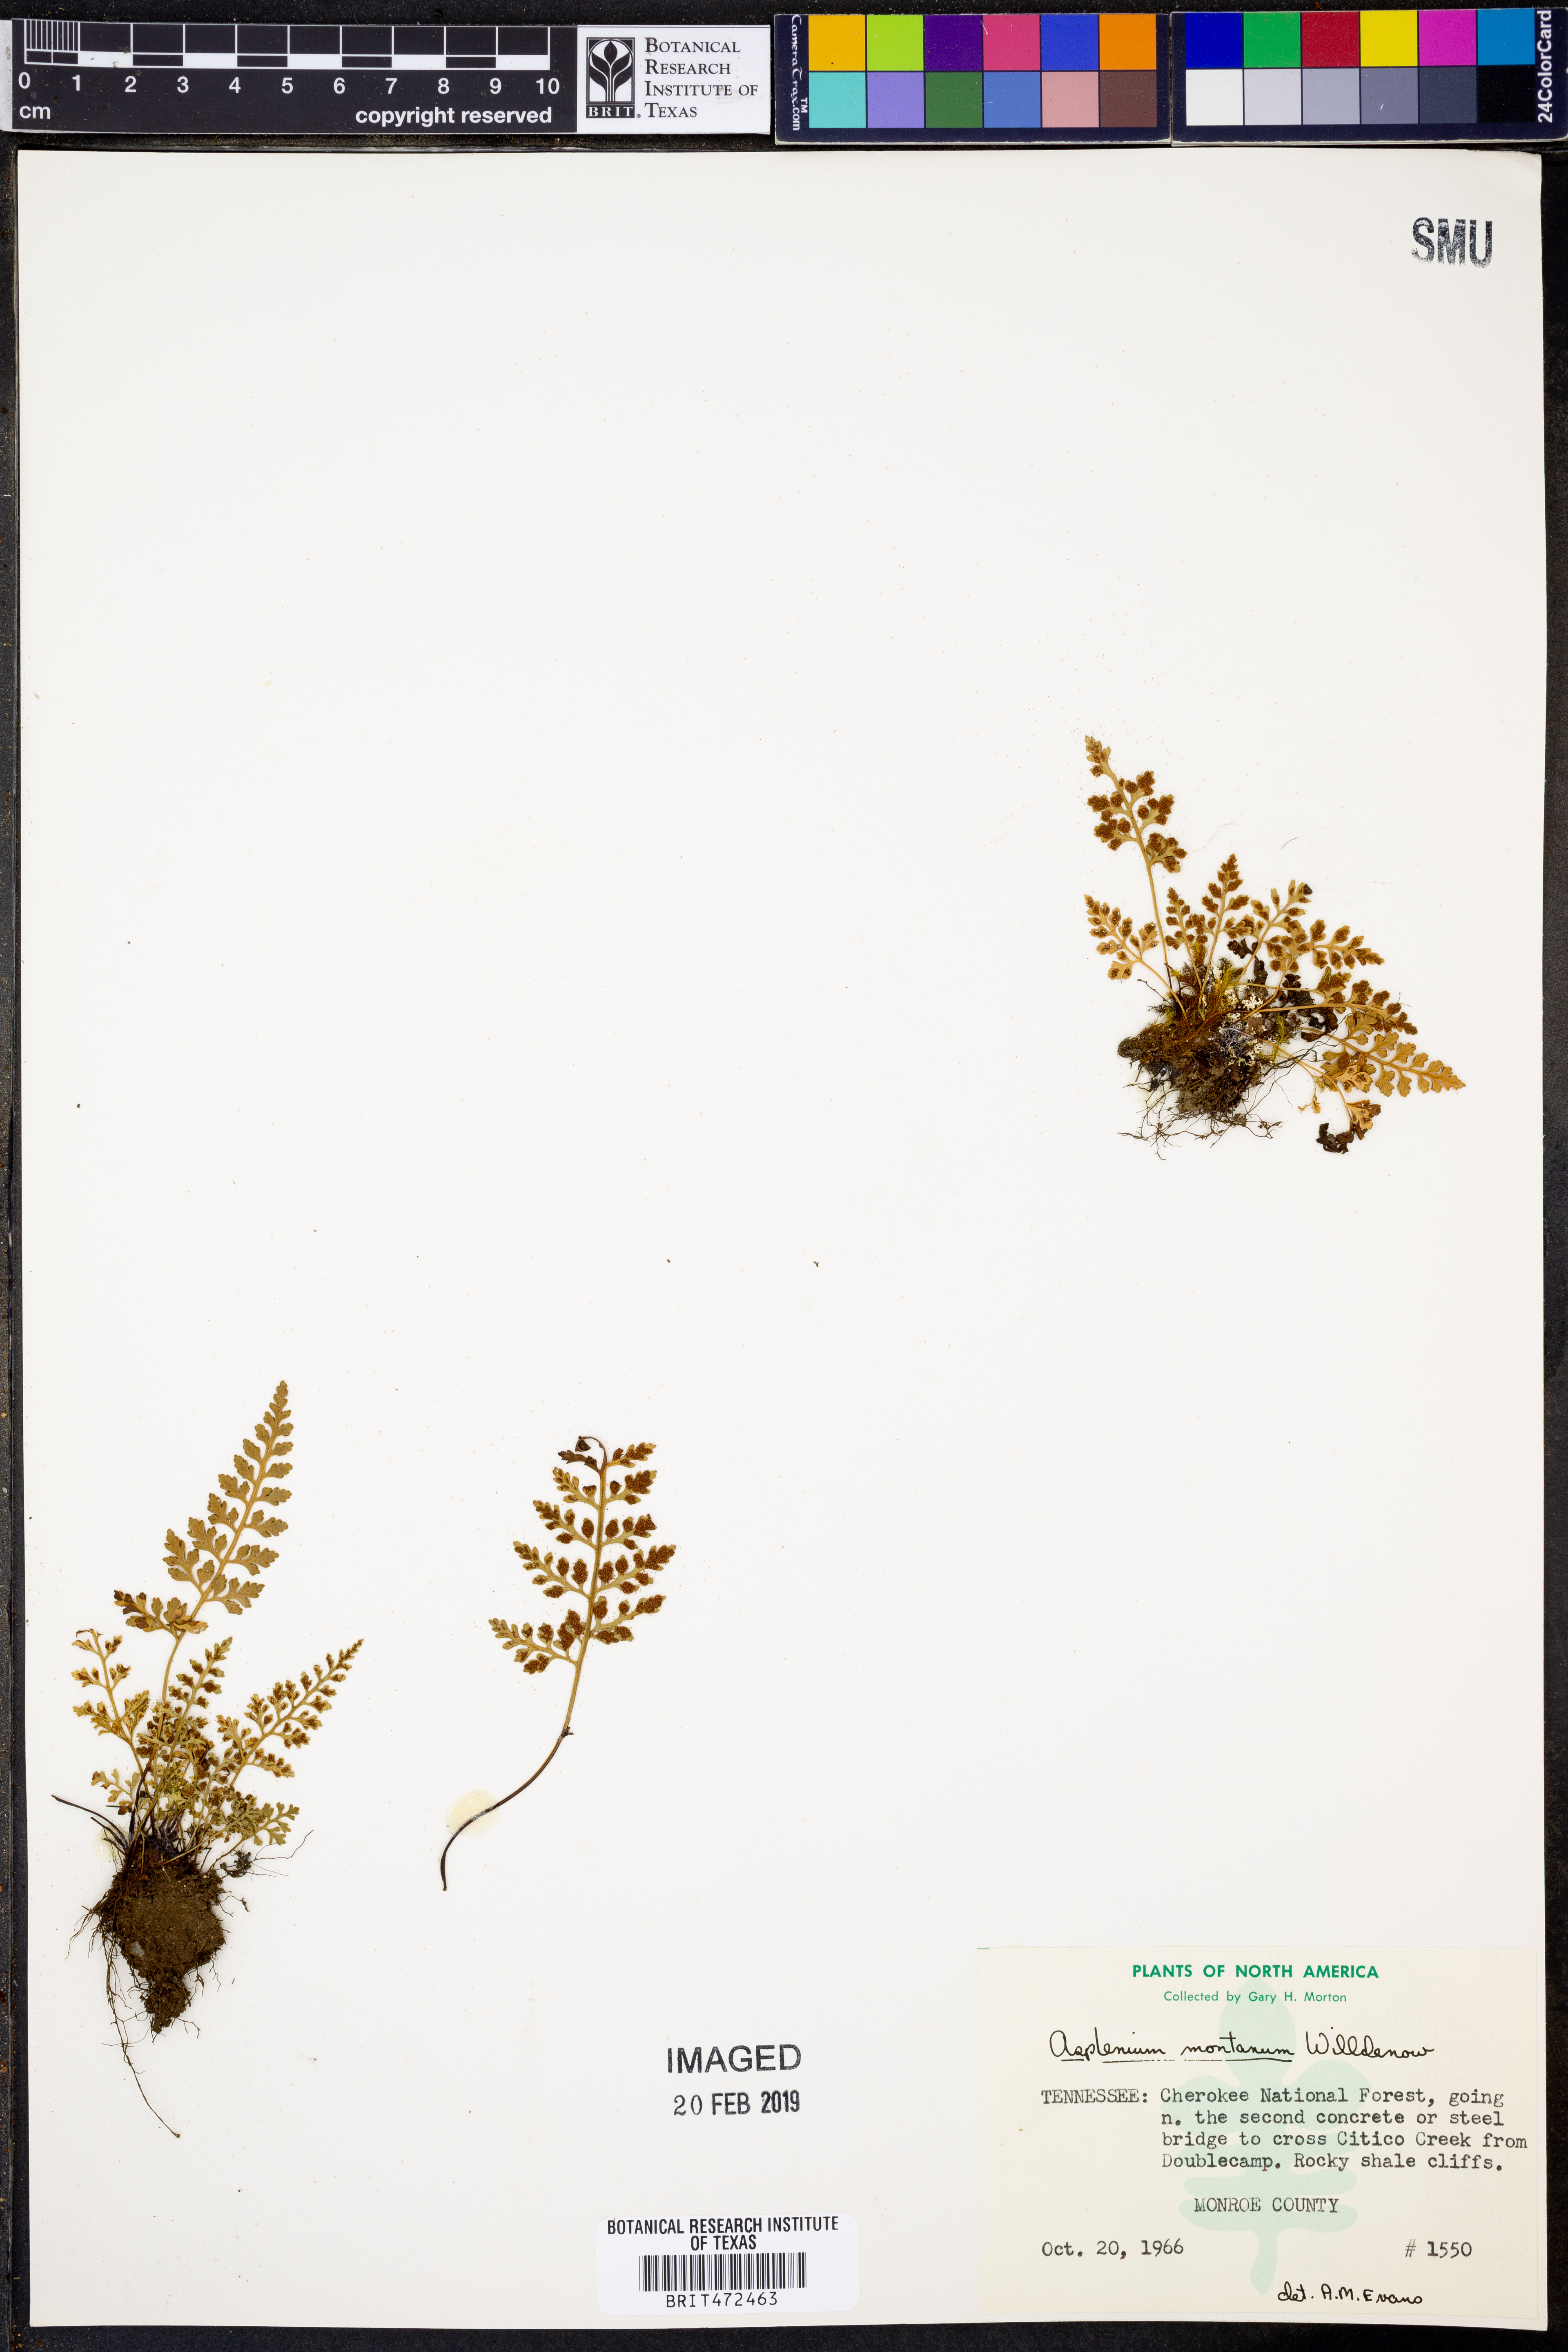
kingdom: Plantae
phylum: Tracheophyta
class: Polypodiopsida
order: Polypodiales
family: Aspleniaceae
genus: Asplenium
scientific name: Asplenium montanum
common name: Mountain spleenwort
